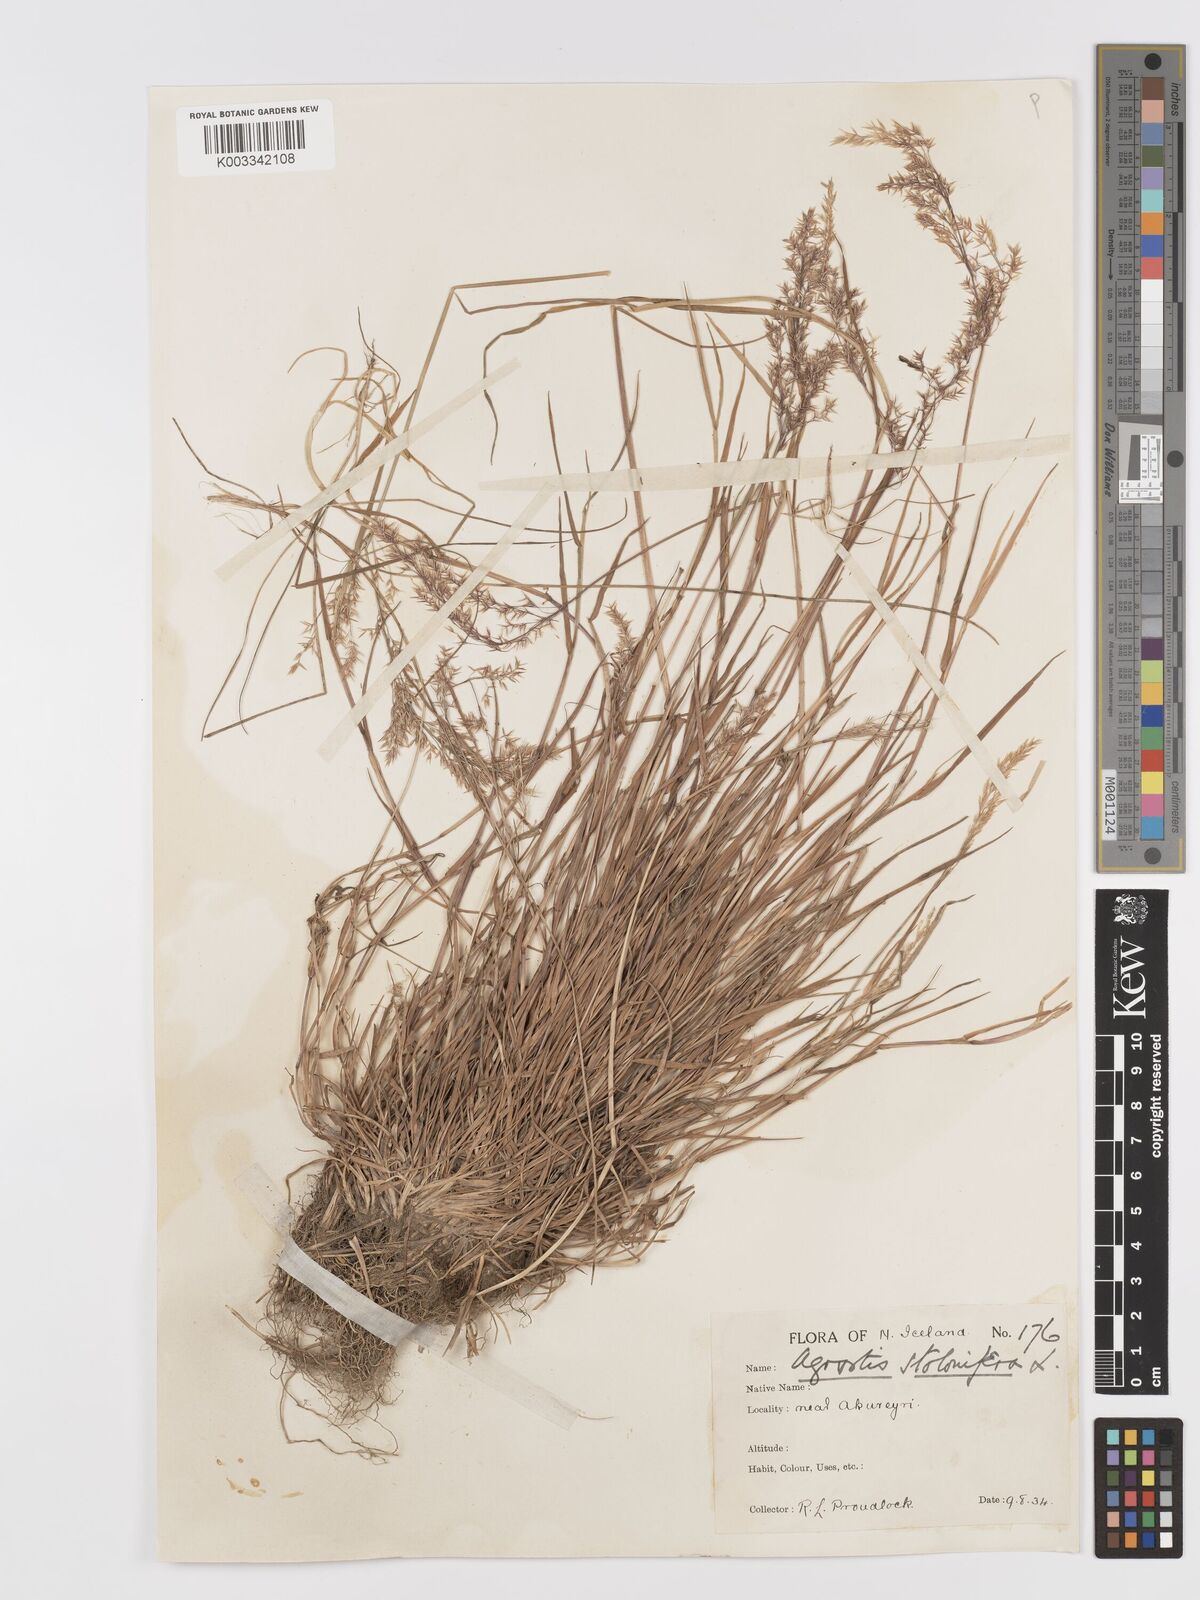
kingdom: Plantae
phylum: Tracheophyta
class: Liliopsida
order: Poales
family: Poaceae
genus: Agrostis
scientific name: Agrostis stolonifera
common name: Creeping bentgrass
